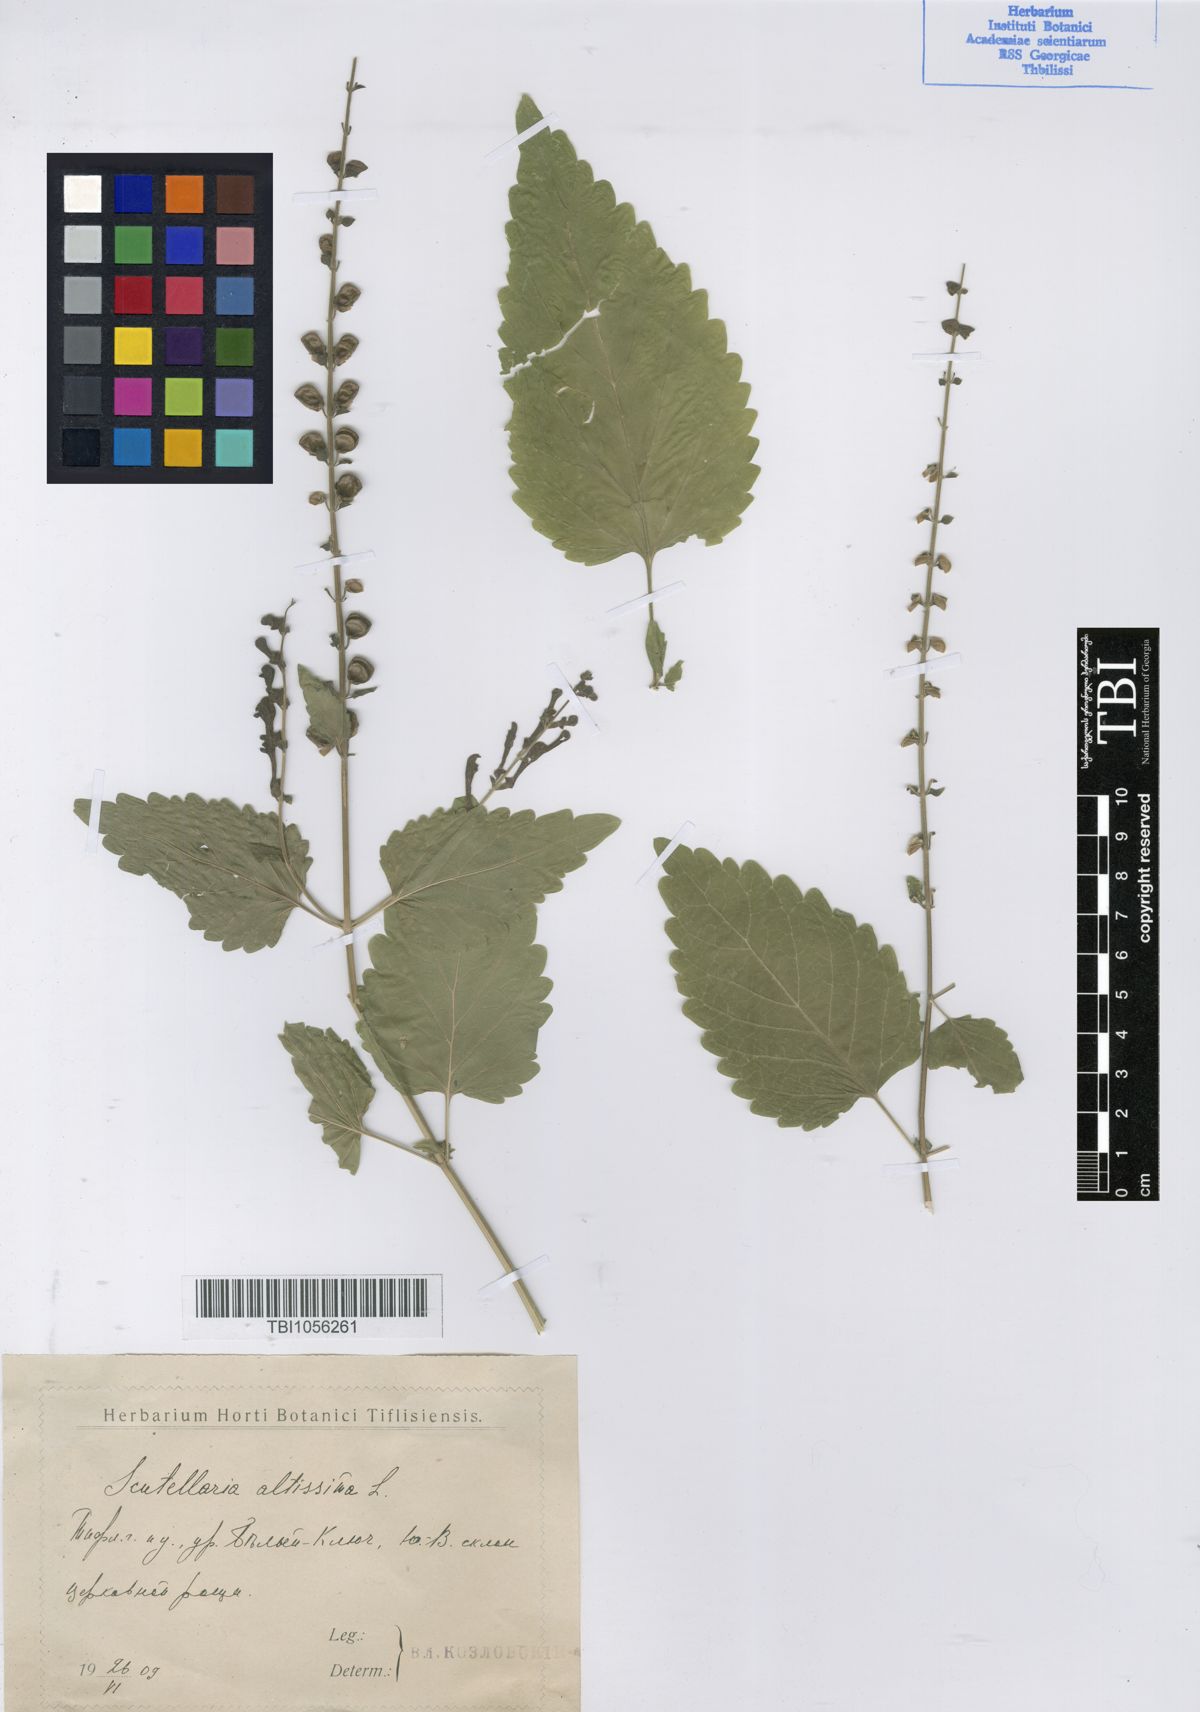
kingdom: Plantae
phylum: Tracheophyta
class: Magnoliopsida
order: Lamiales
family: Lamiaceae
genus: Scutellaria
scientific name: Scutellaria altissima
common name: Somerset skullcap
